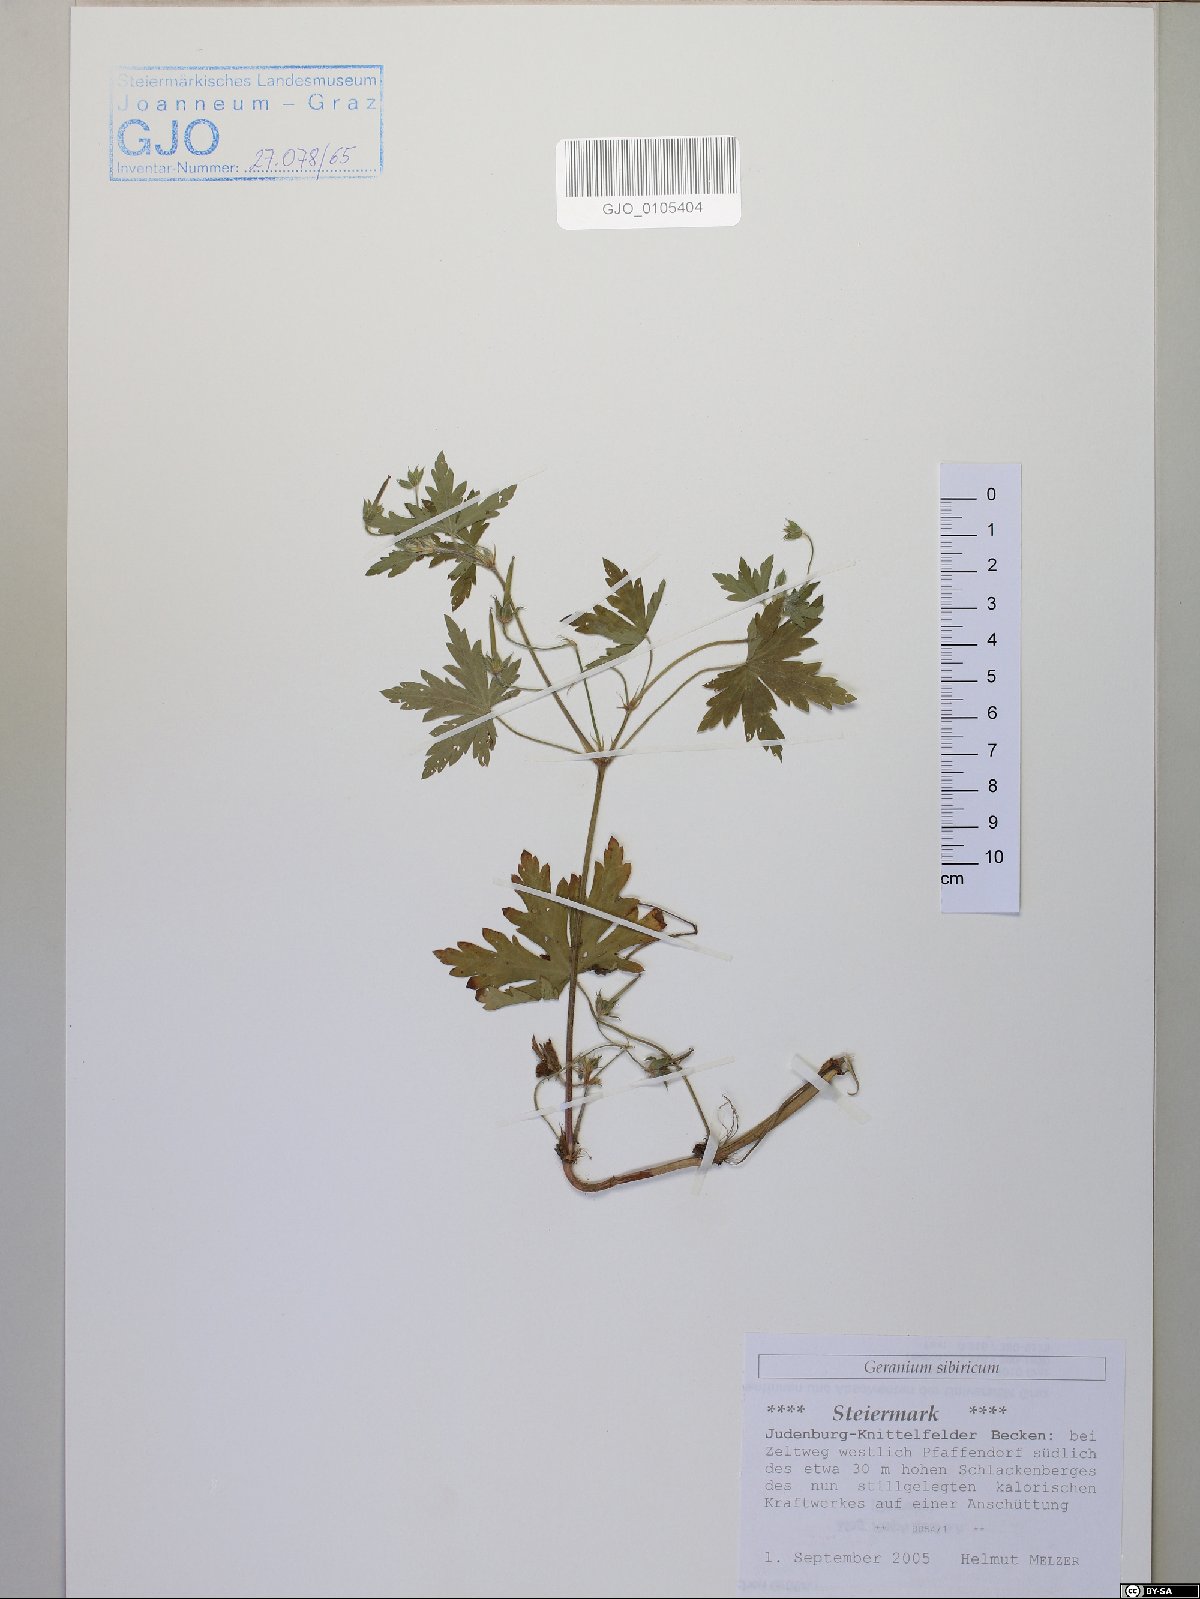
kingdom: Plantae
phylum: Tracheophyta
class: Magnoliopsida
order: Geraniales
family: Geraniaceae
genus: Geranium
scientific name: Geranium sibiricum
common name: Siberian crane's-bill
